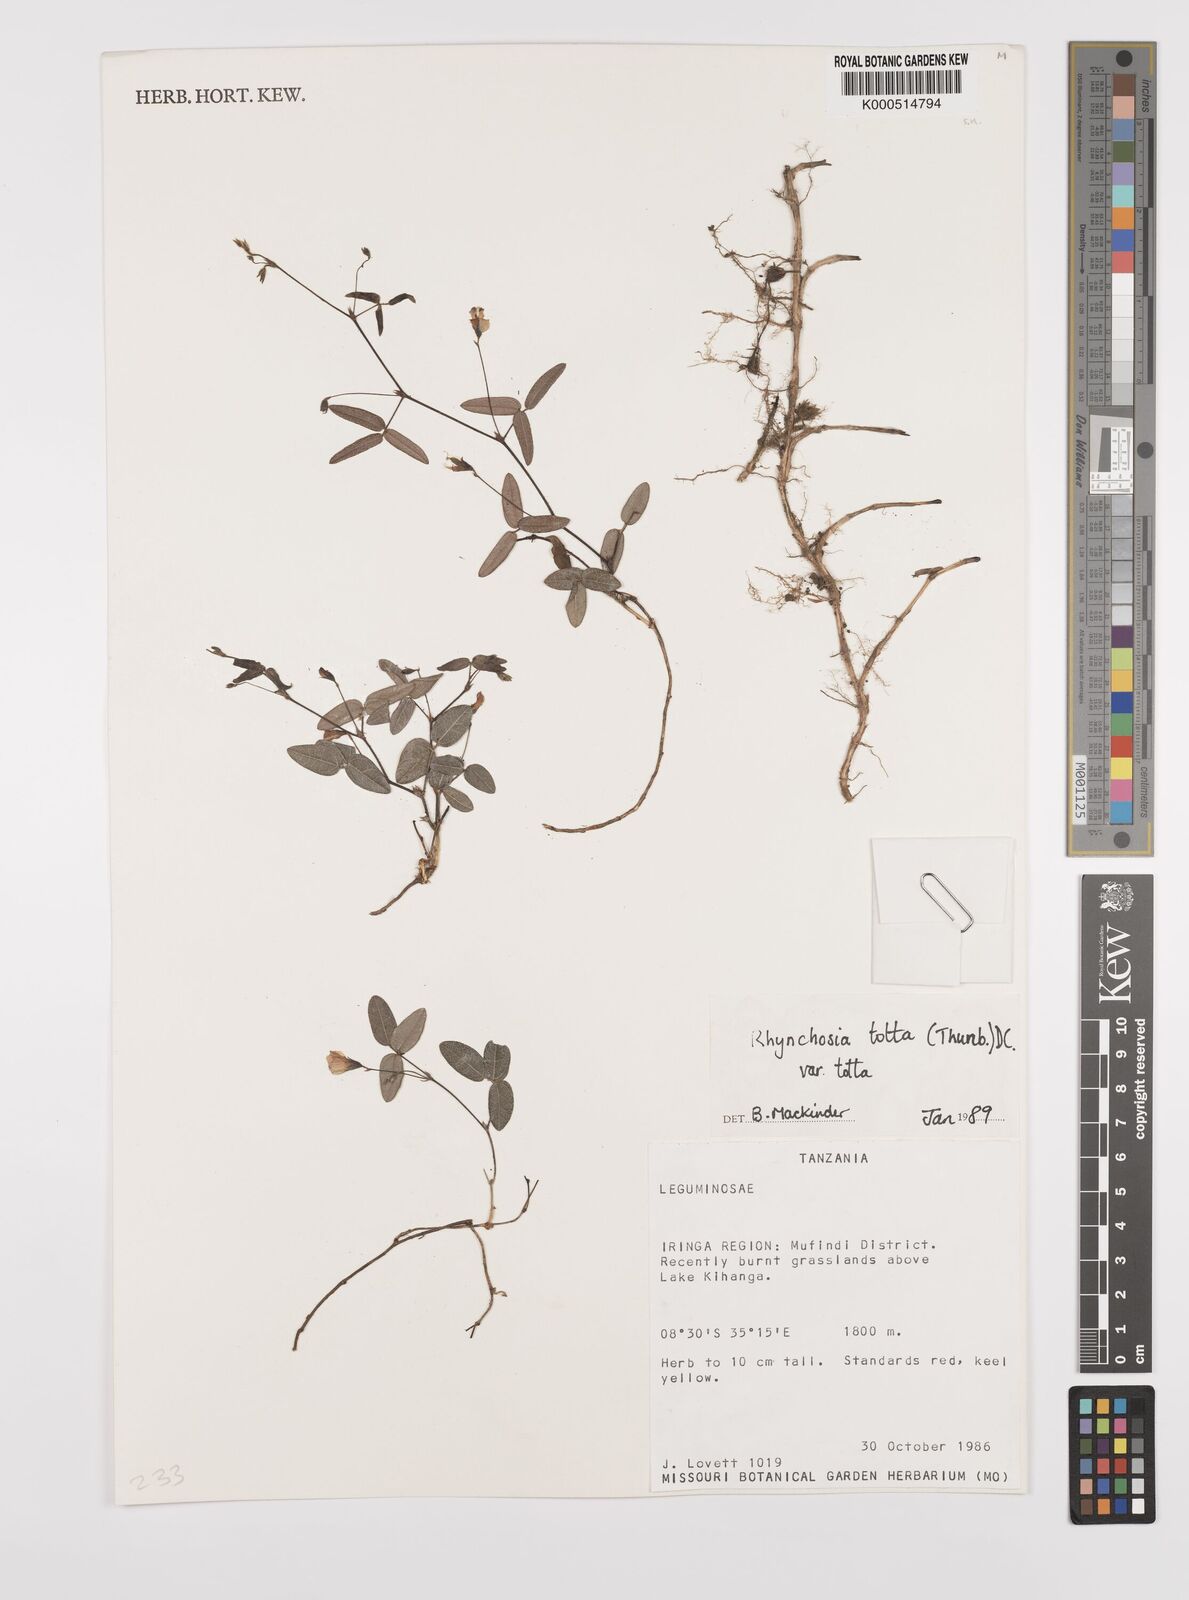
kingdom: Plantae
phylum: Tracheophyta
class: Magnoliopsida
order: Fabales
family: Fabaceae
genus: Rhynchosia
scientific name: Rhynchosia totta
